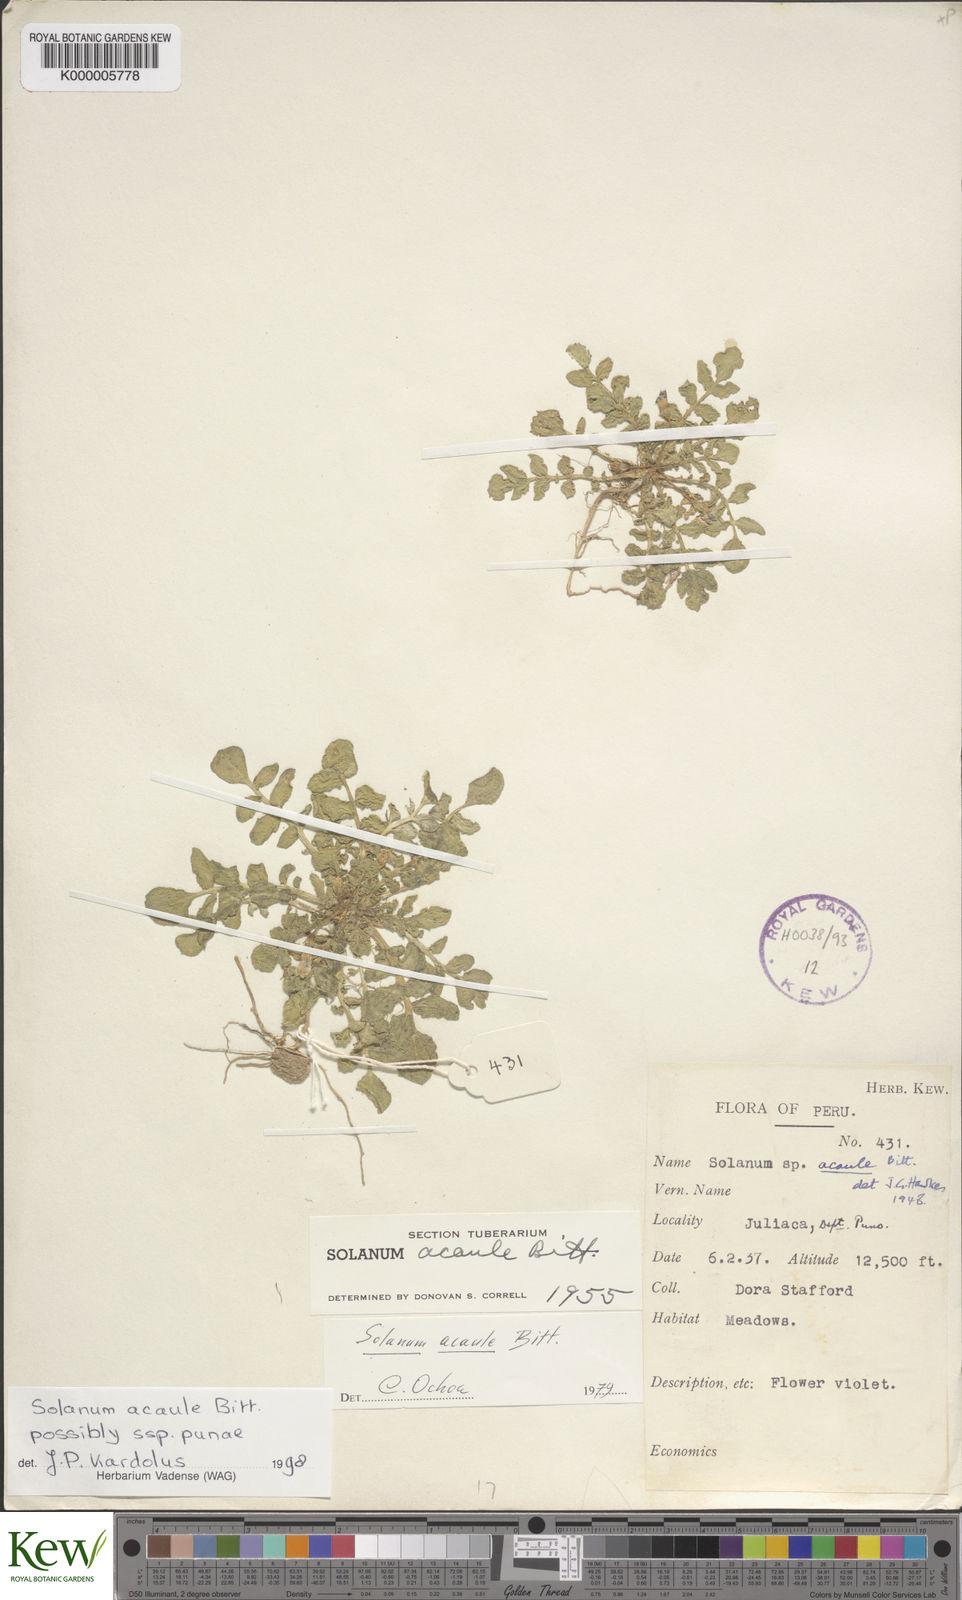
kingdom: Plantae
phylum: Tracheophyta
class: Magnoliopsida
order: Solanales
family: Solanaceae
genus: Solanum
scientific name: Solanum acaule
